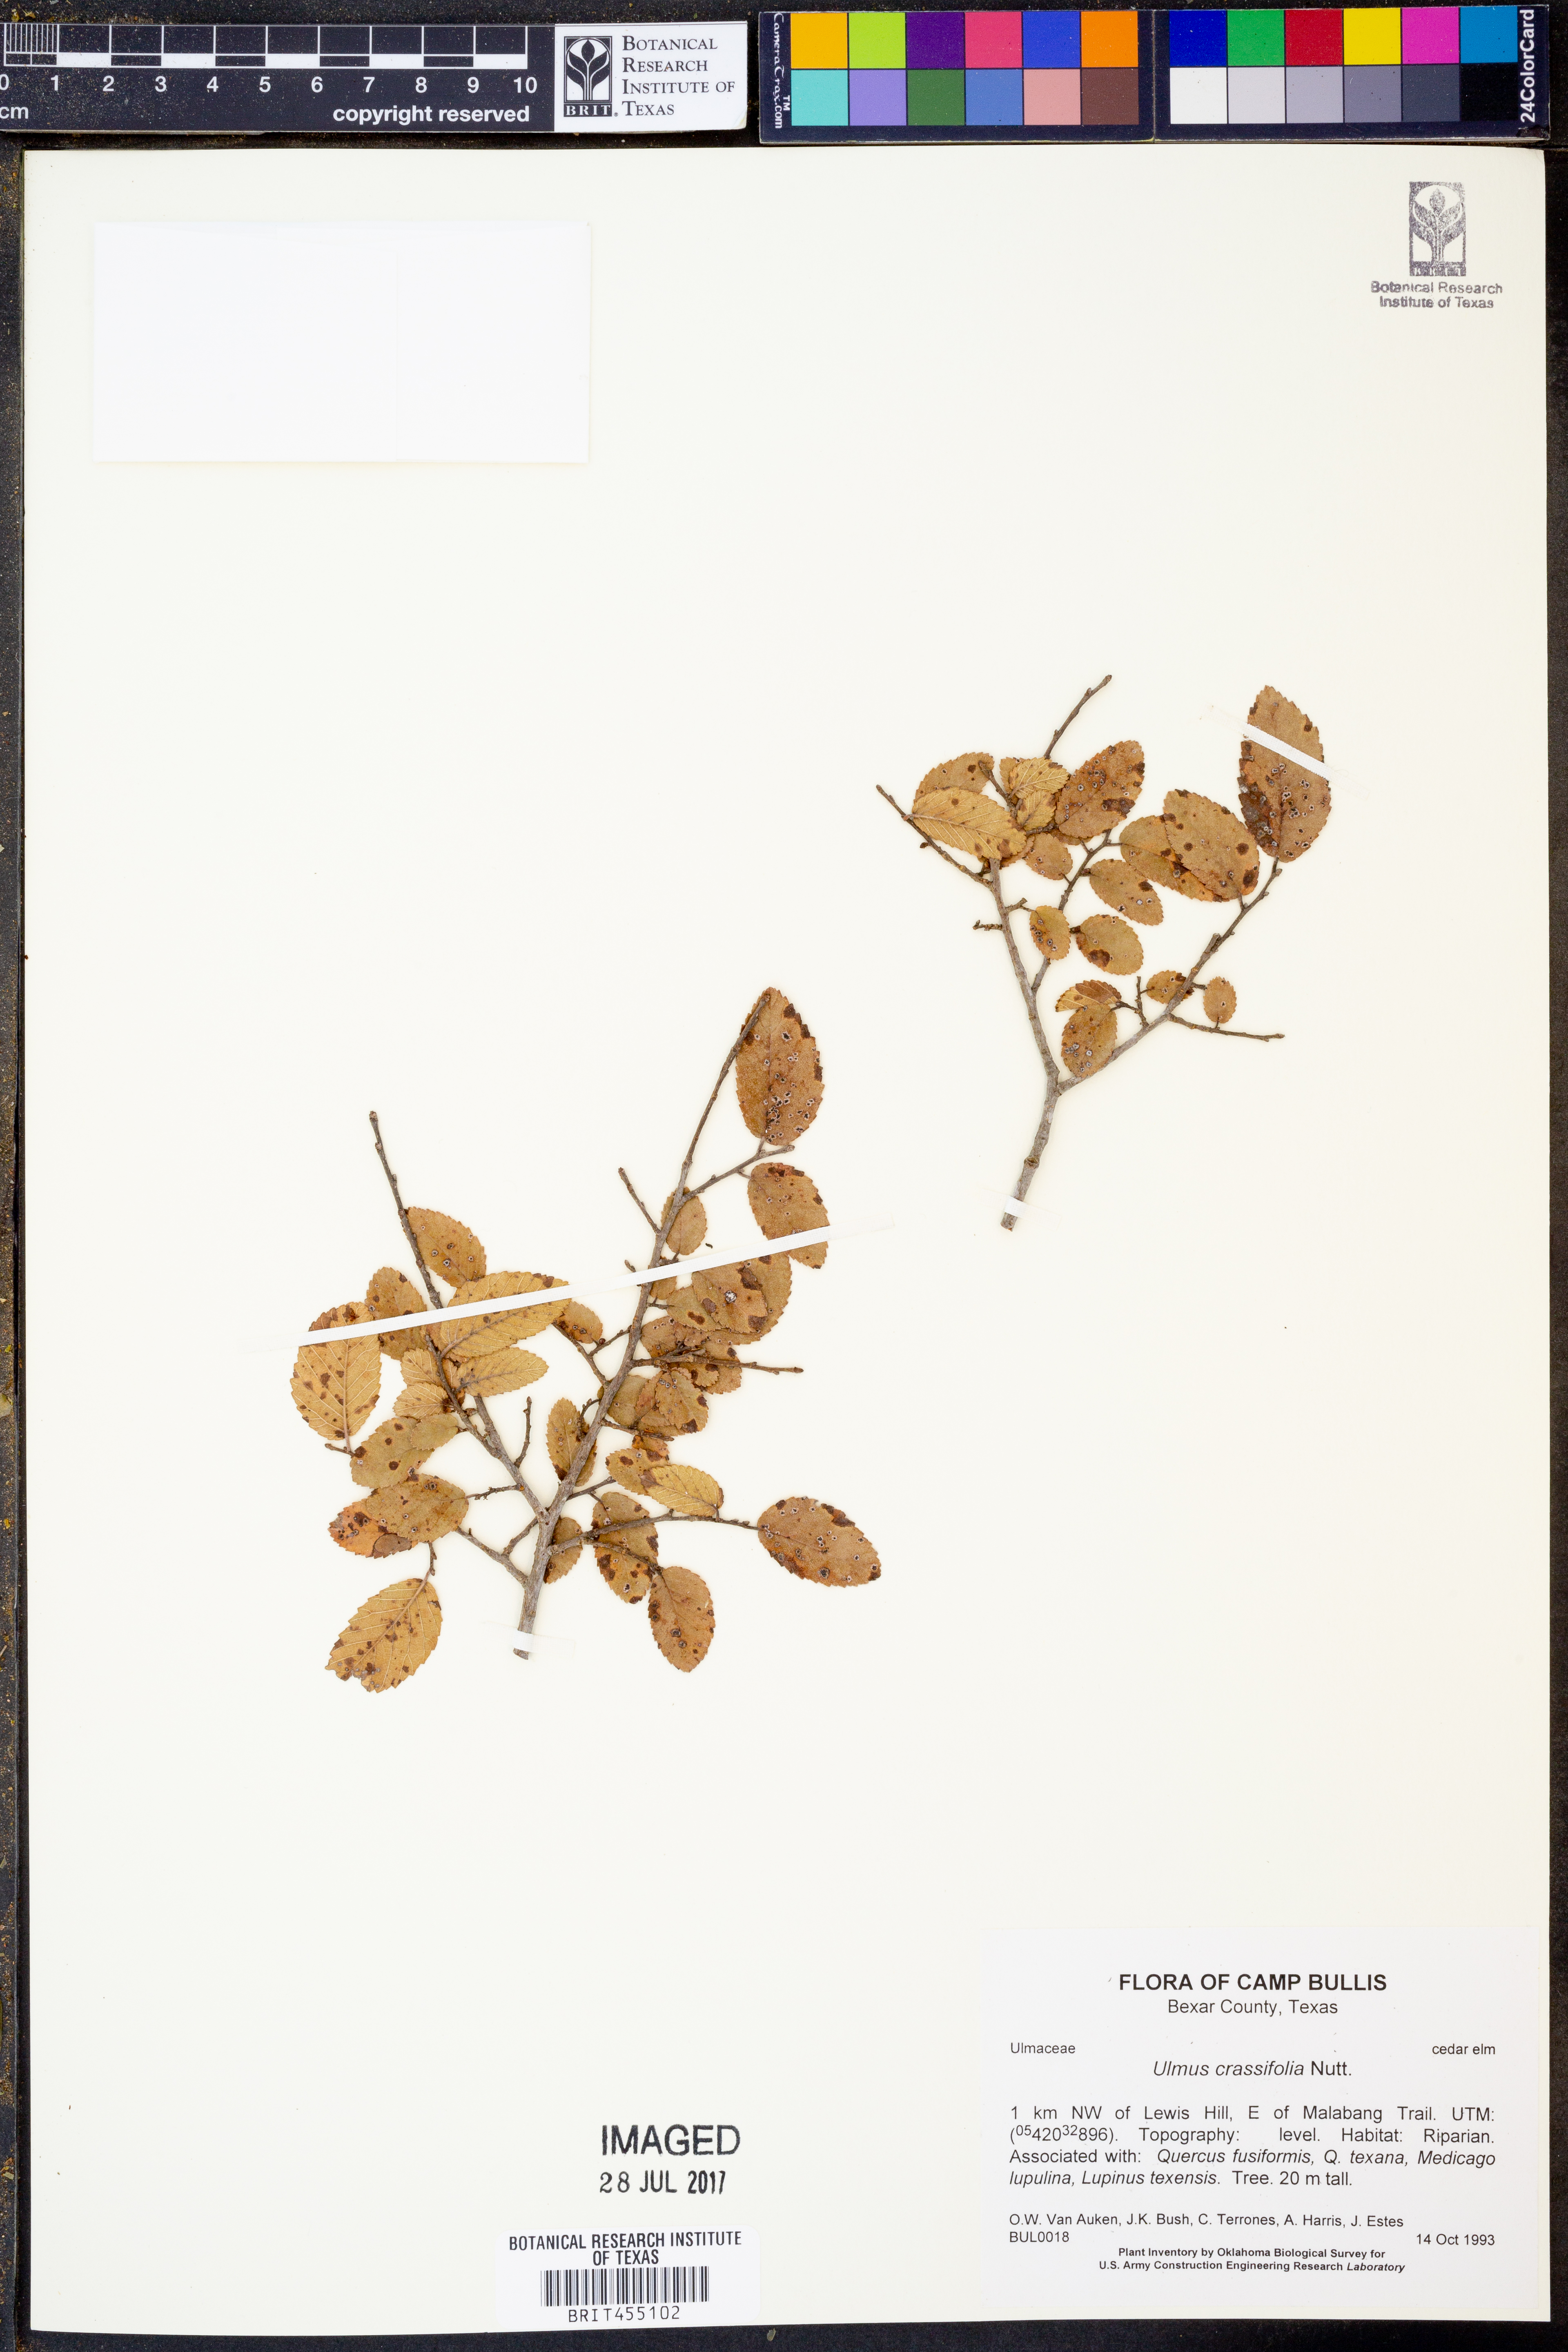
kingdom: Plantae
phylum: Tracheophyta
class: Magnoliopsida
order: Rosales
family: Ulmaceae
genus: Ulmus
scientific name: Ulmus crassifolia
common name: Basket elm
